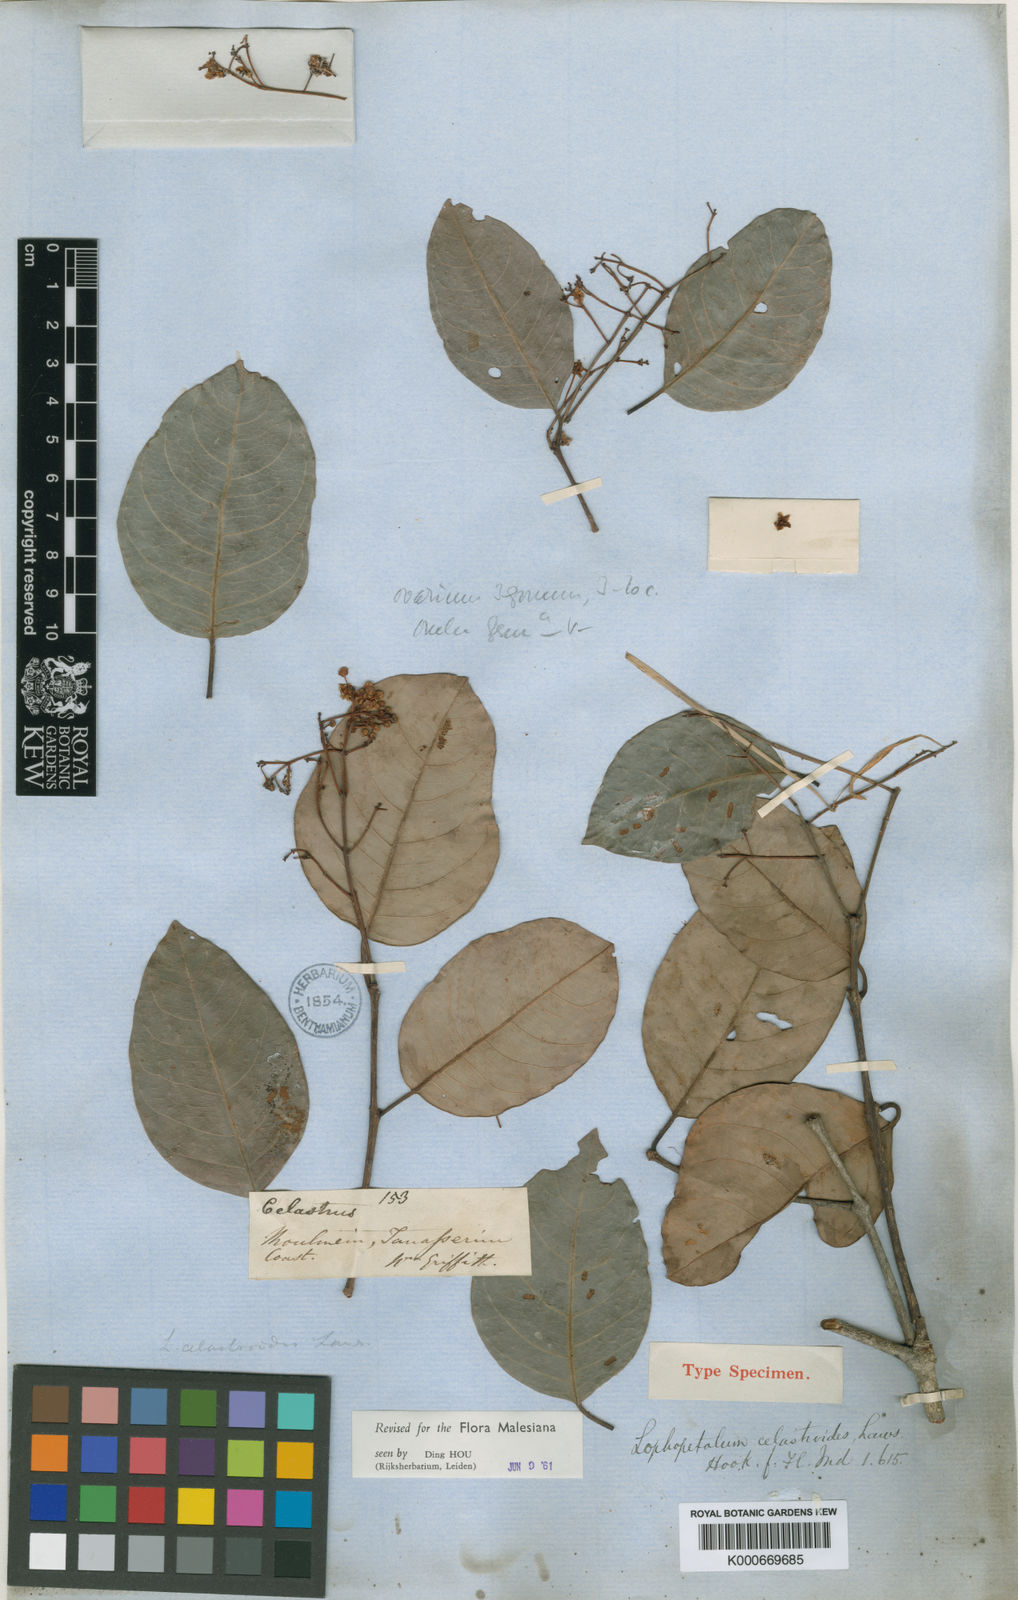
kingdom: Plantae
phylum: Tracheophyta
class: Magnoliopsida
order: Celastrales
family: Celastraceae
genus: Lophopetalum
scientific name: Lophopetalum wallichii
